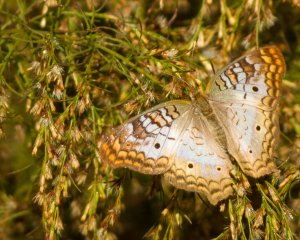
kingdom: Animalia
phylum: Arthropoda
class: Insecta
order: Lepidoptera
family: Nymphalidae
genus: Anartia
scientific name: Anartia jatrophae
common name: White Peacock
